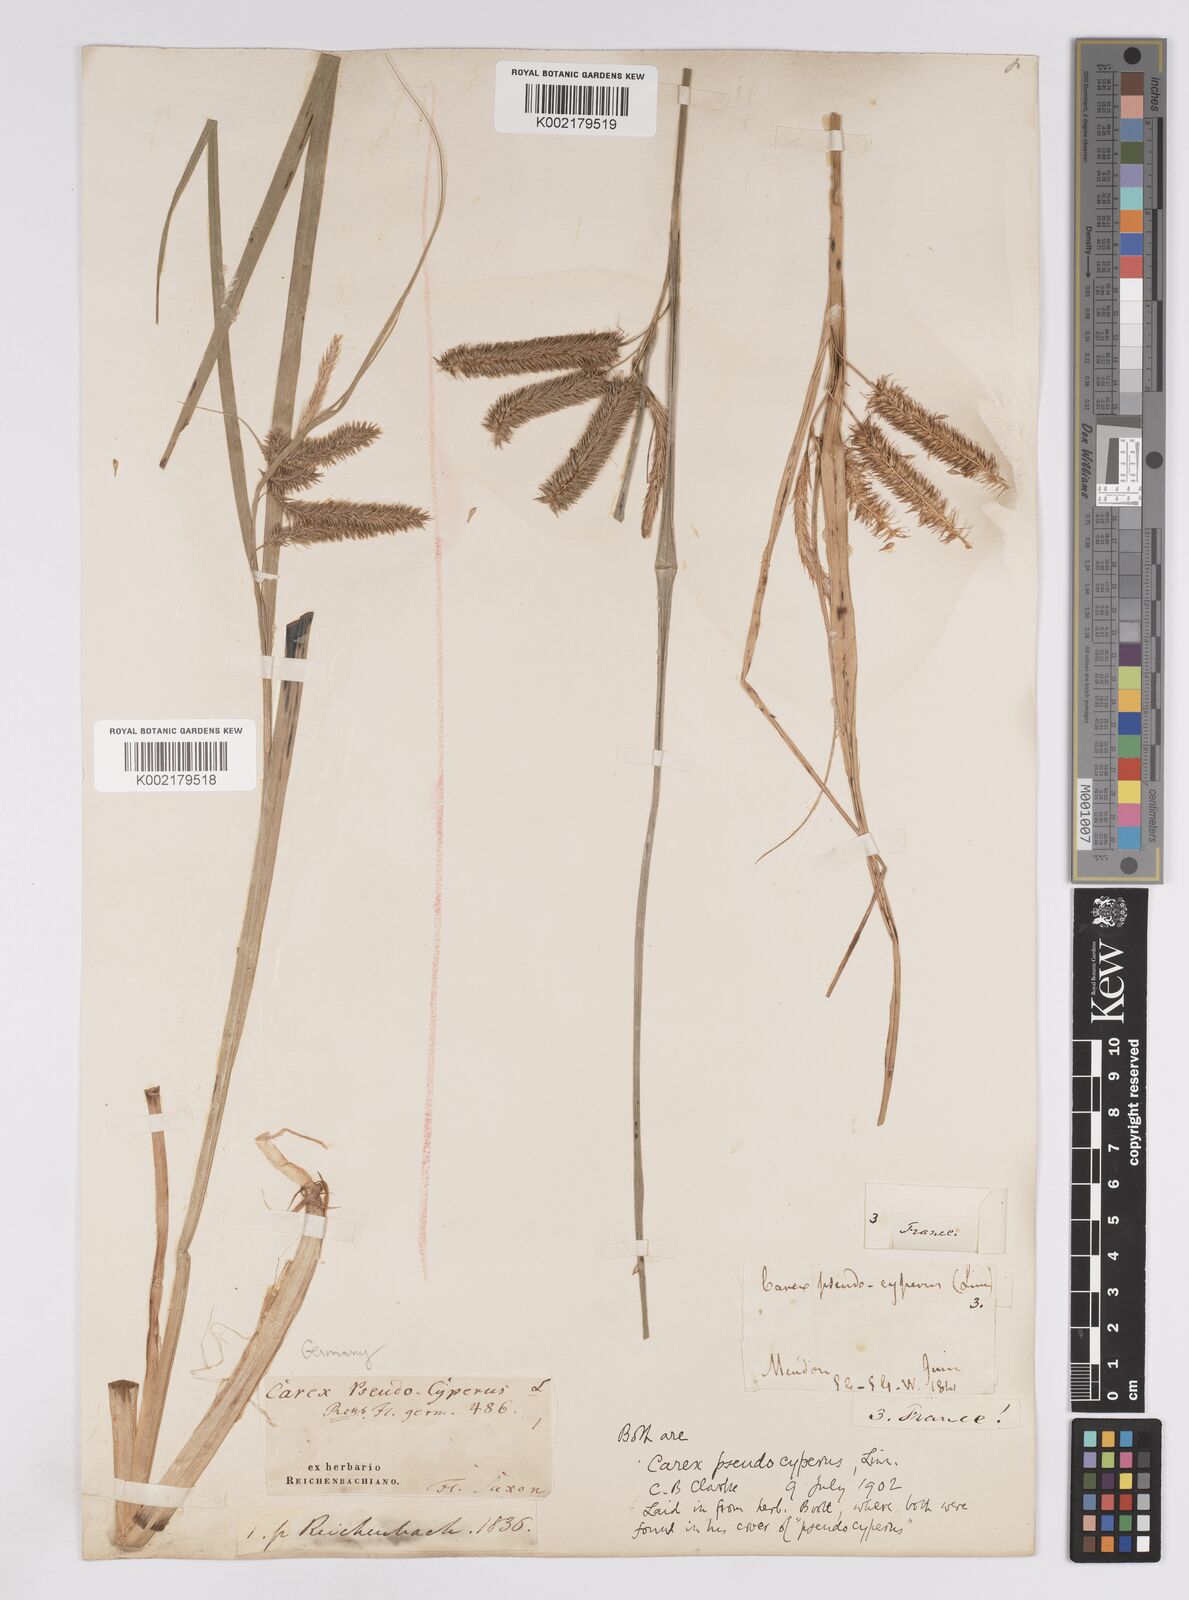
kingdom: Plantae
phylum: Tracheophyta
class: Liliopsida
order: Poales
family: Cyperaceae
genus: Carex
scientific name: Carex pseudocyperus
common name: Cyperus sedge
